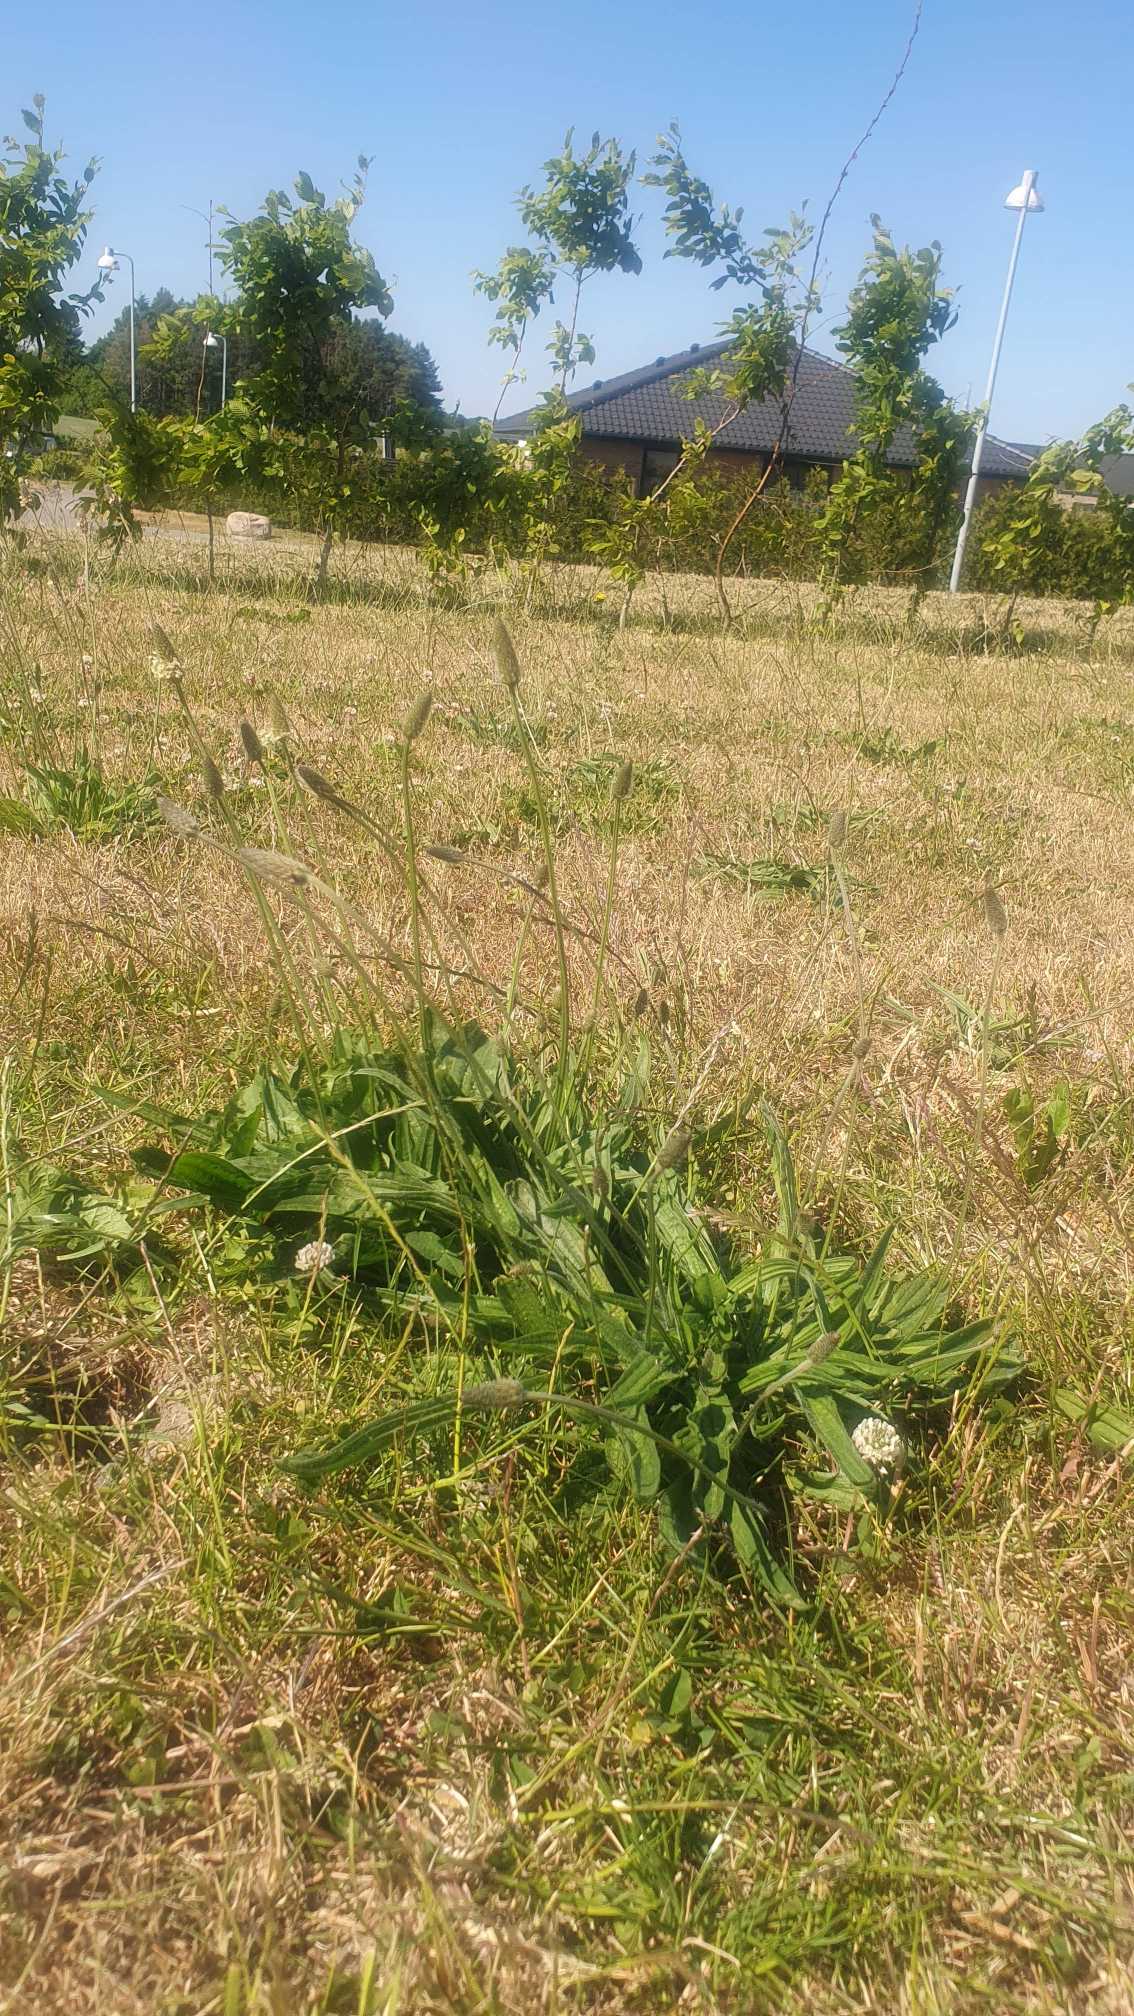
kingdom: Plantae
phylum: Tracheophyta
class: Magnoliopsida
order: Lamiales
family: Plantaginaceae
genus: Plantago
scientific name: Plantago lanceolata
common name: Lancet-vejbred
